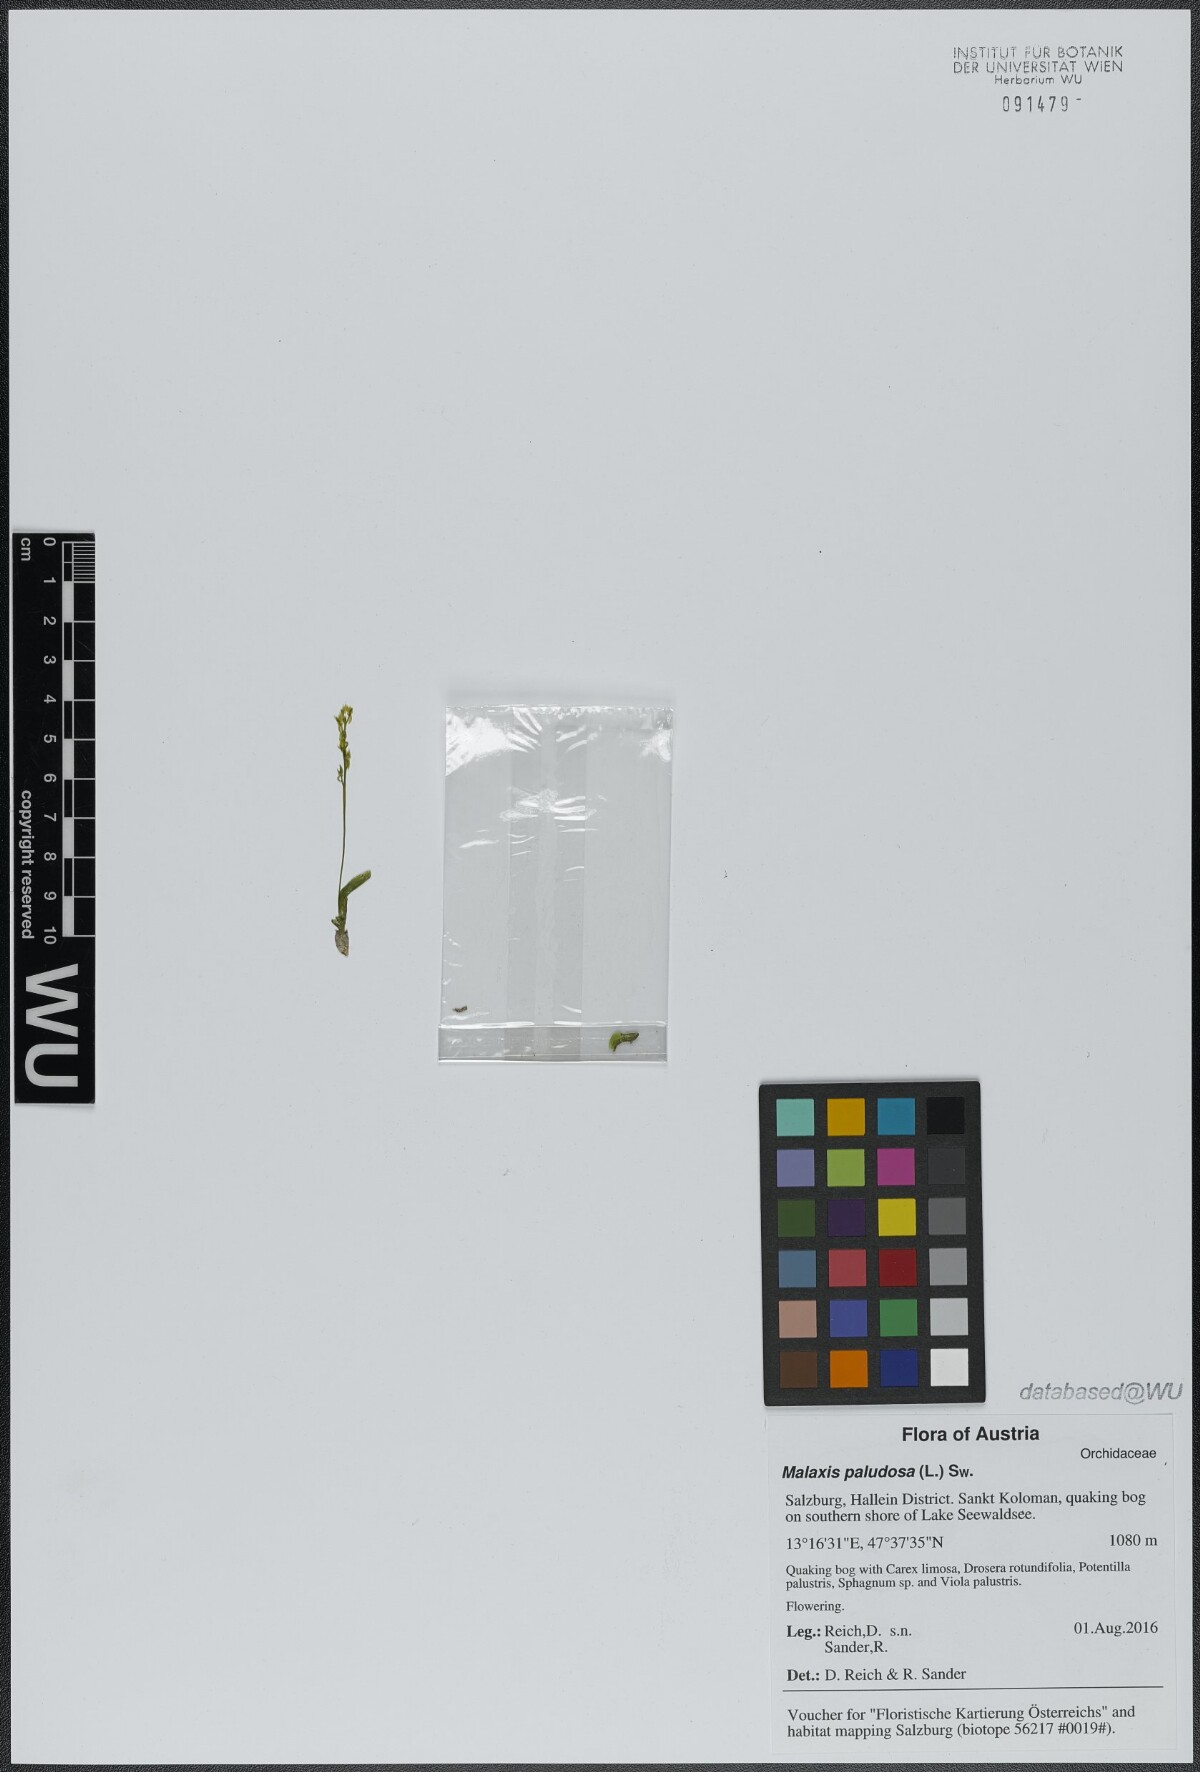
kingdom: Plantae
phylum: Tracheophyta
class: Liliopsida
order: Asparagales
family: Orchidaceae
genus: Hammarbya
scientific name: Hammarbya paludosa
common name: Bog orchid
